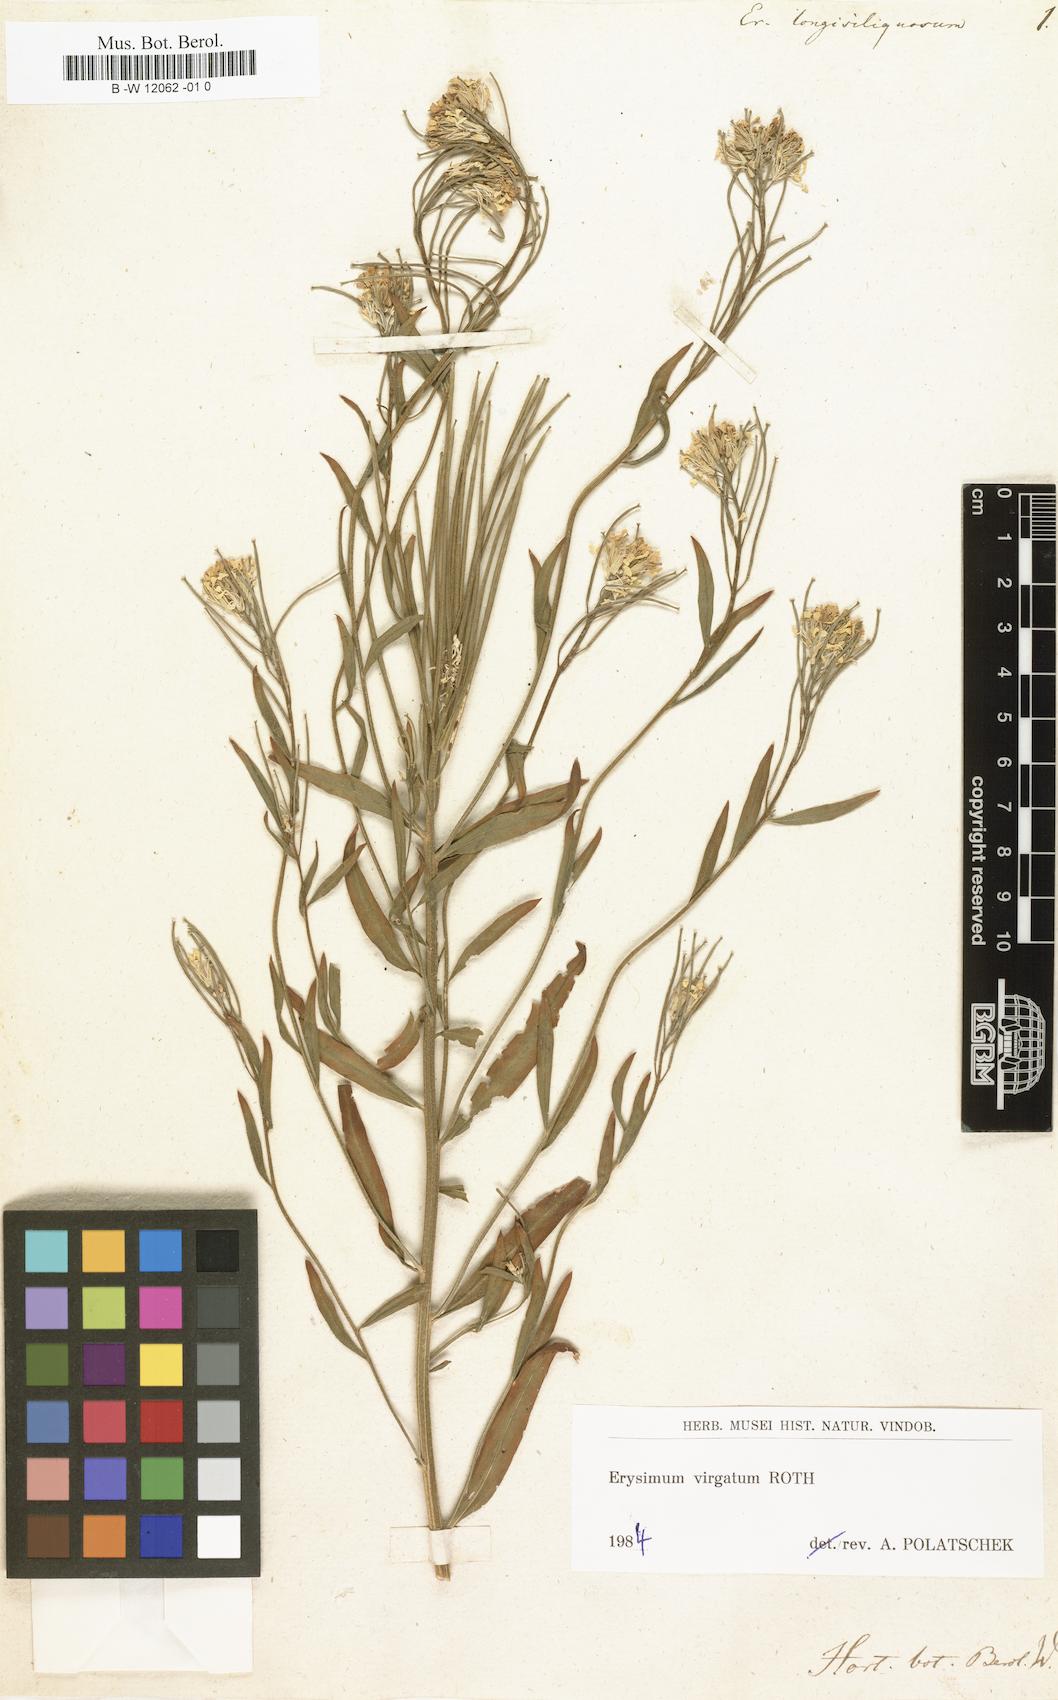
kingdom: Plantae
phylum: Tracheophyta
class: Magnoliopsida
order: Brassicales
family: Brassicaceae
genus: Erysimum
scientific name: Erysimum virgatum
